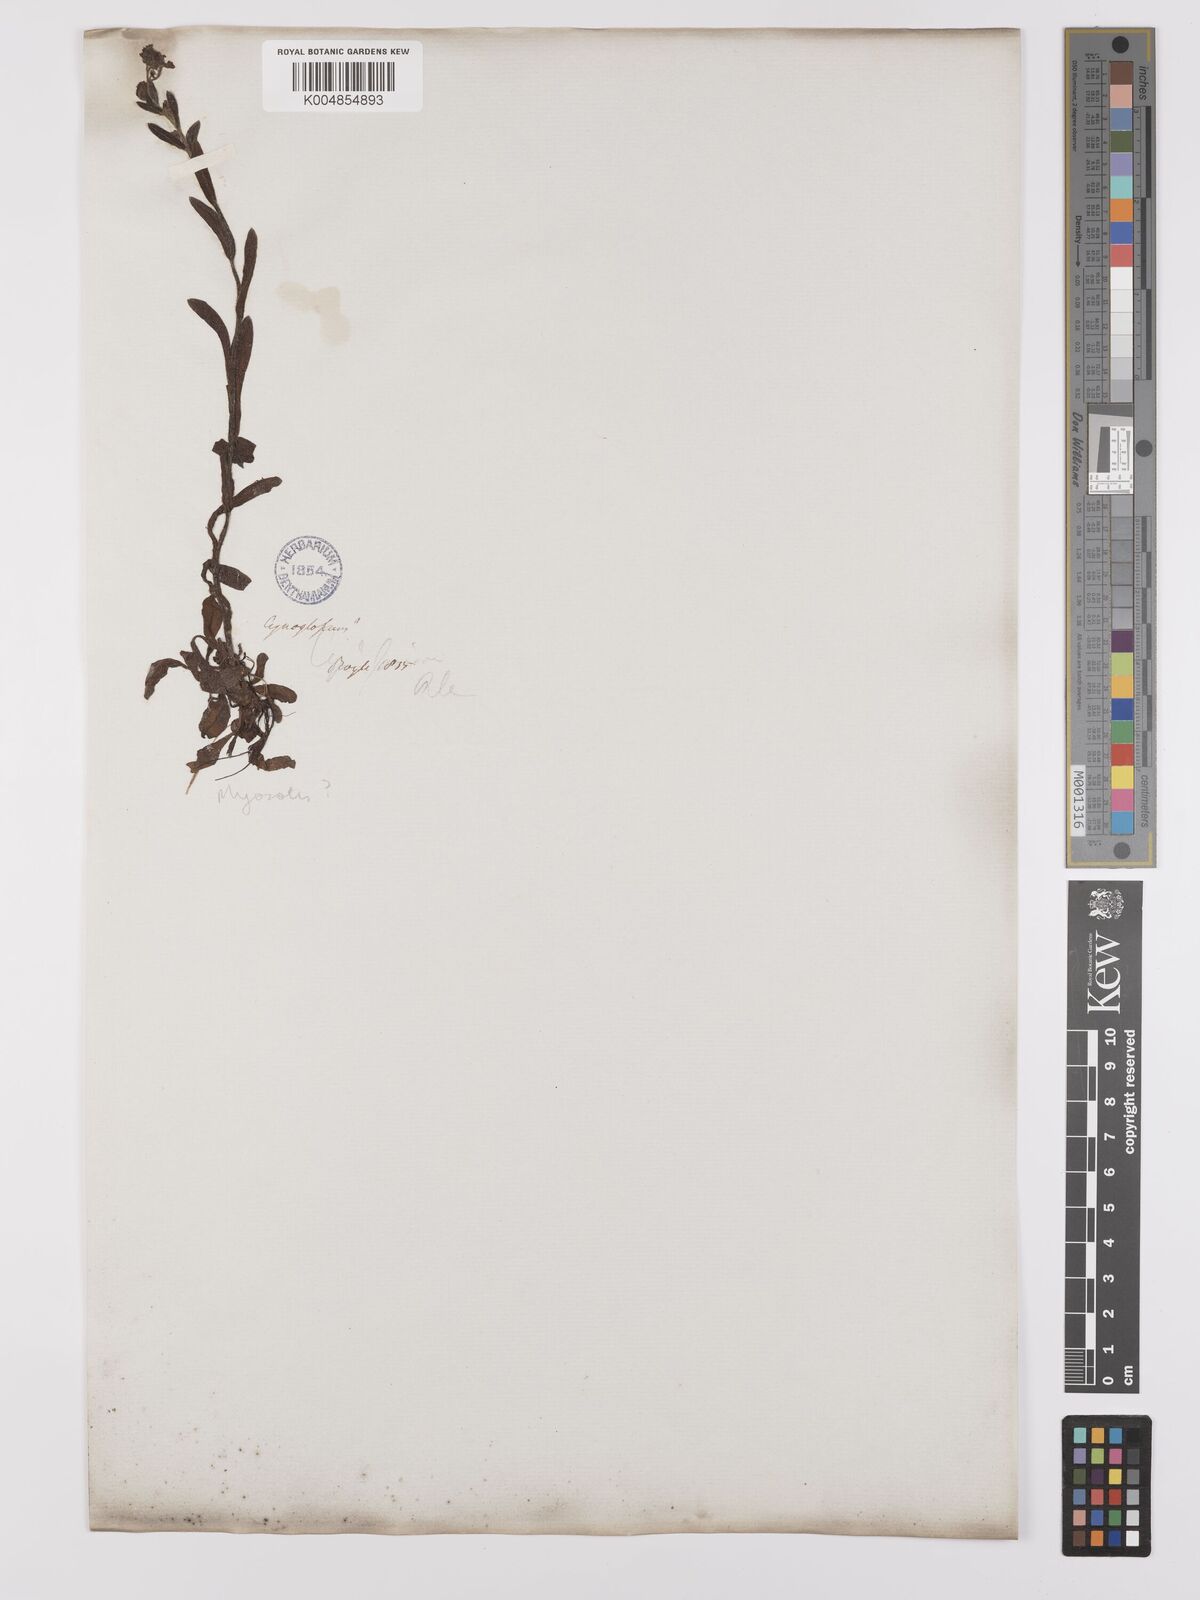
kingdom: Plantae
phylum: Tracheophyta
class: Magnoliopsida
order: Boraginales
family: Boraginaceae
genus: Myosotis
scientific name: Myosotis
